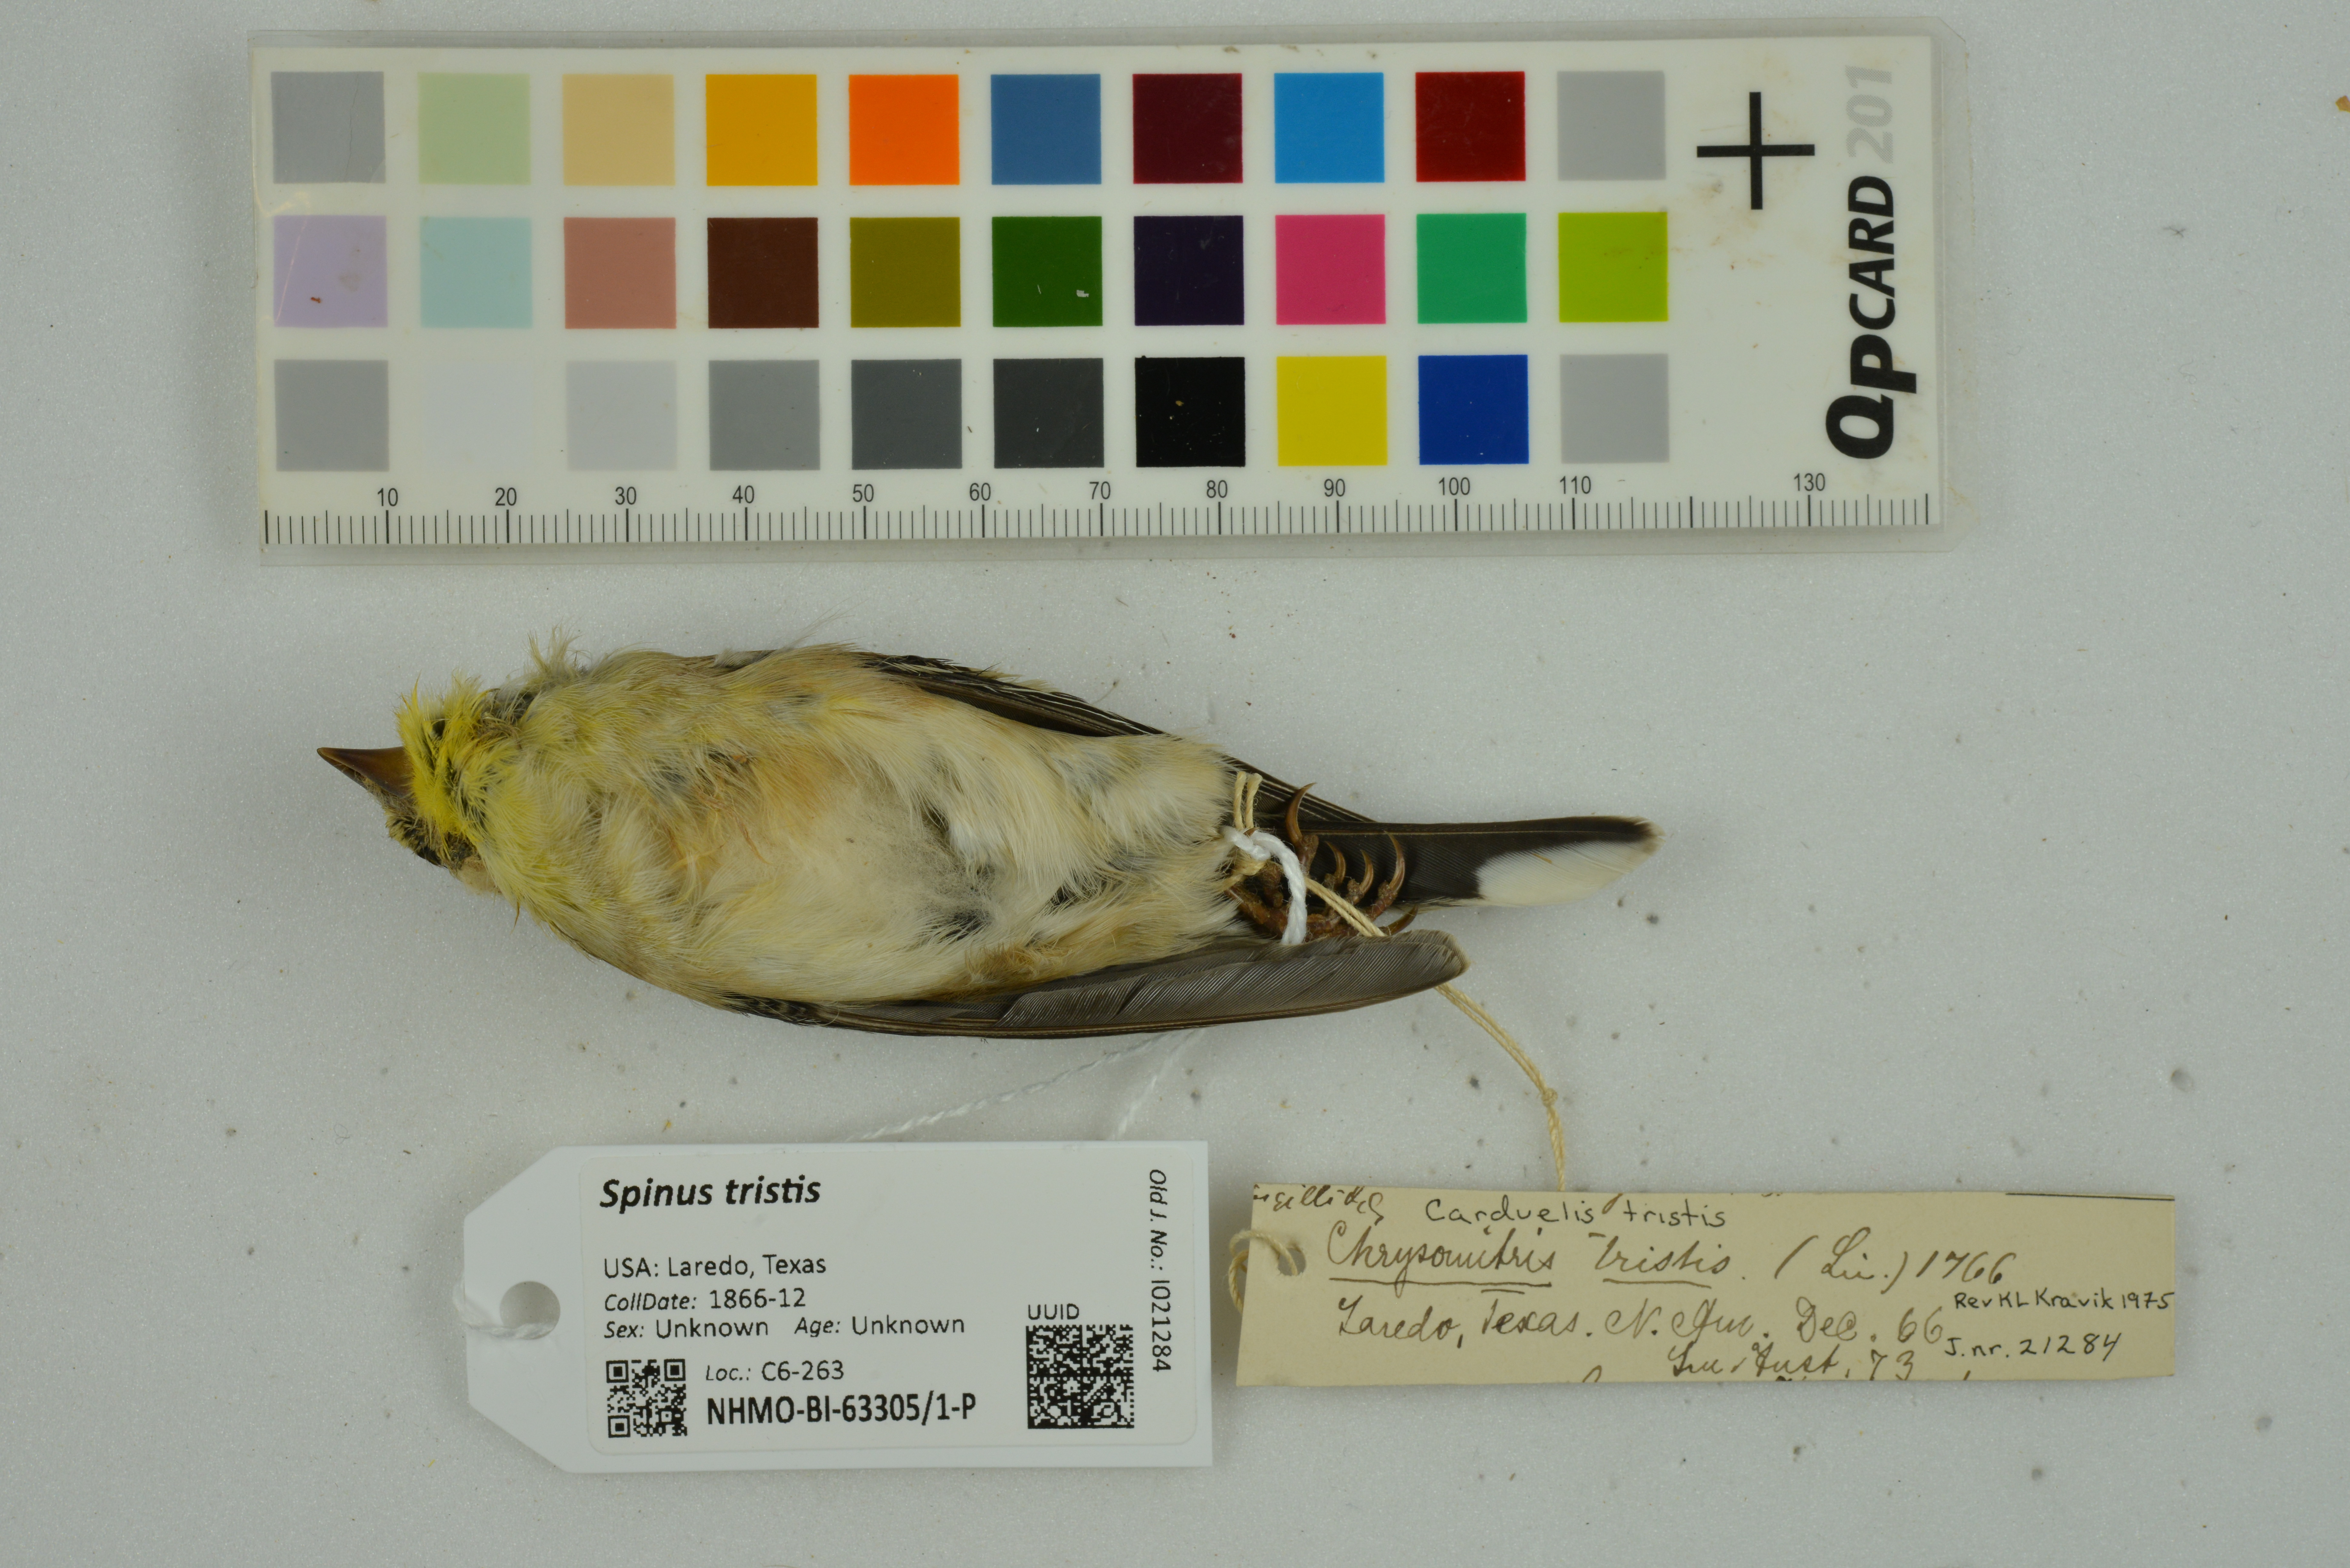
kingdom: Animalia
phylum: Chordata
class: Aves
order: Passeriformes
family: Fringillidae
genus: Spinus
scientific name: Spinus tristis
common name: American goldfinch
